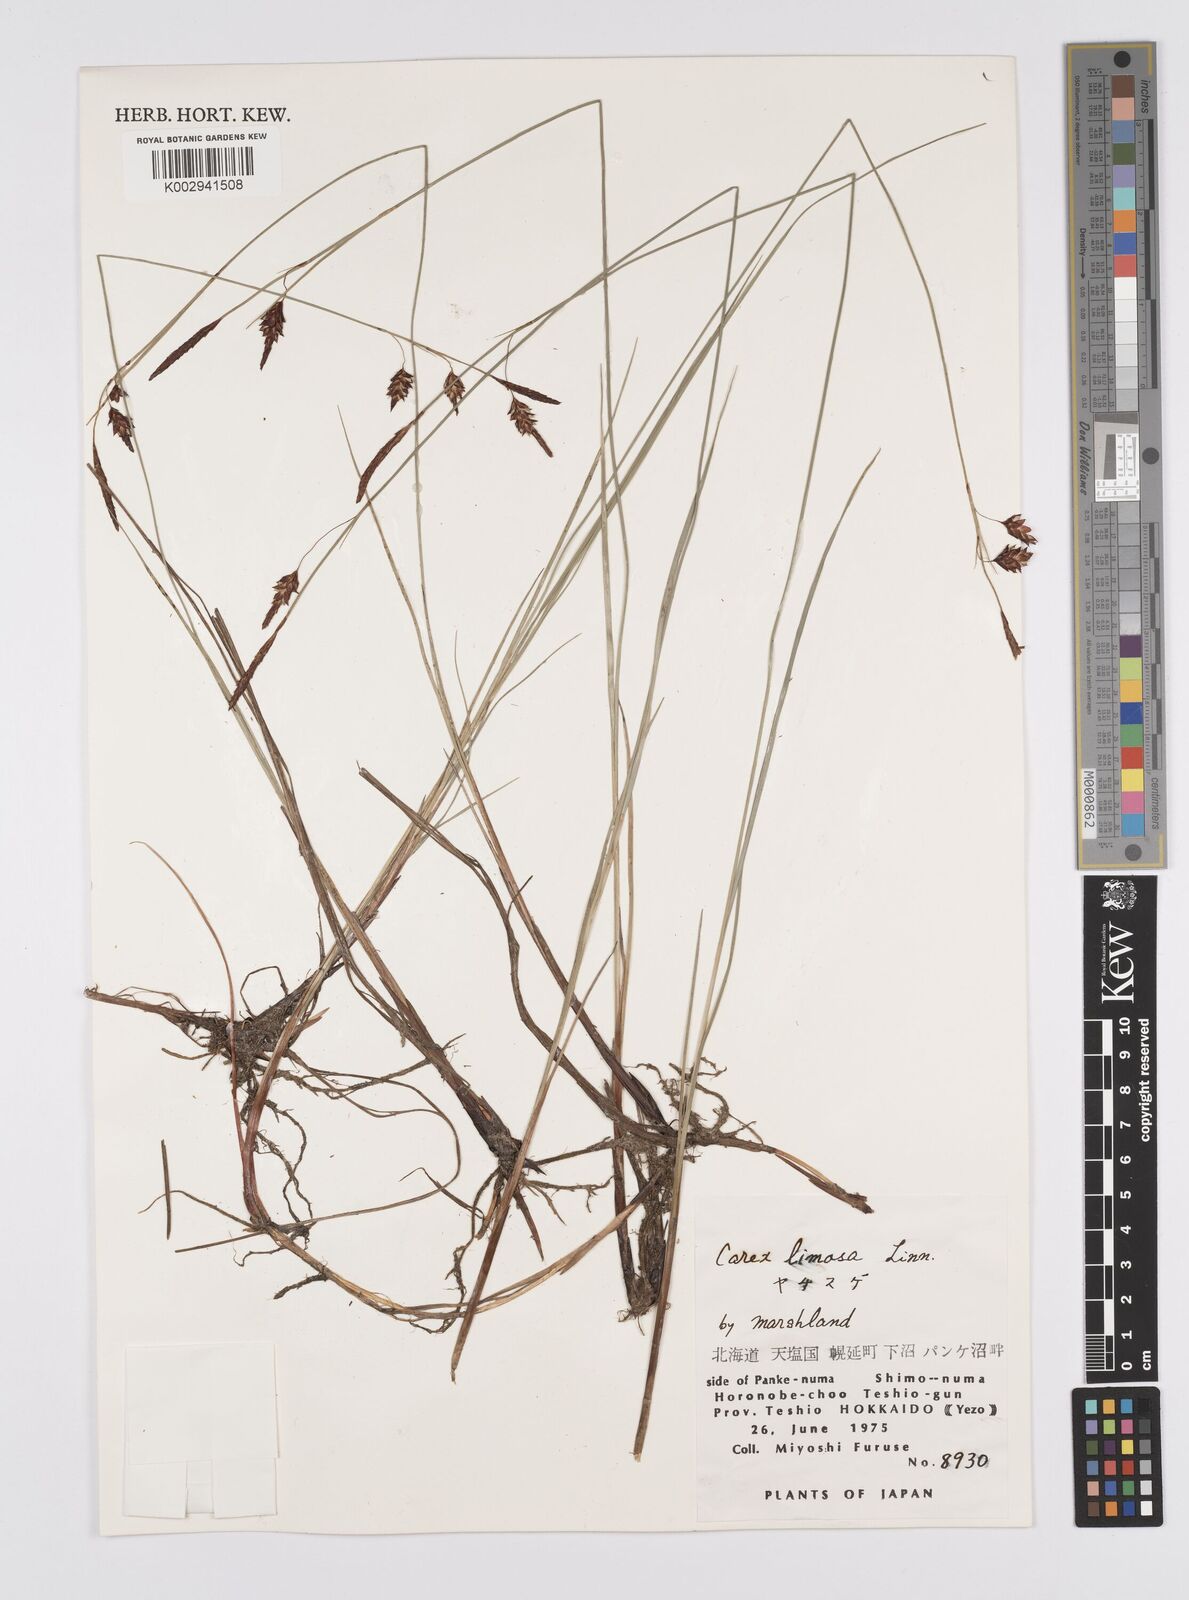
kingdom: Plantae
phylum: Tracheophyta
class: Liliopsida
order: Poales
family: Cyperaceae
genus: Carex
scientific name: Carex limosa
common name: Bog sedge
